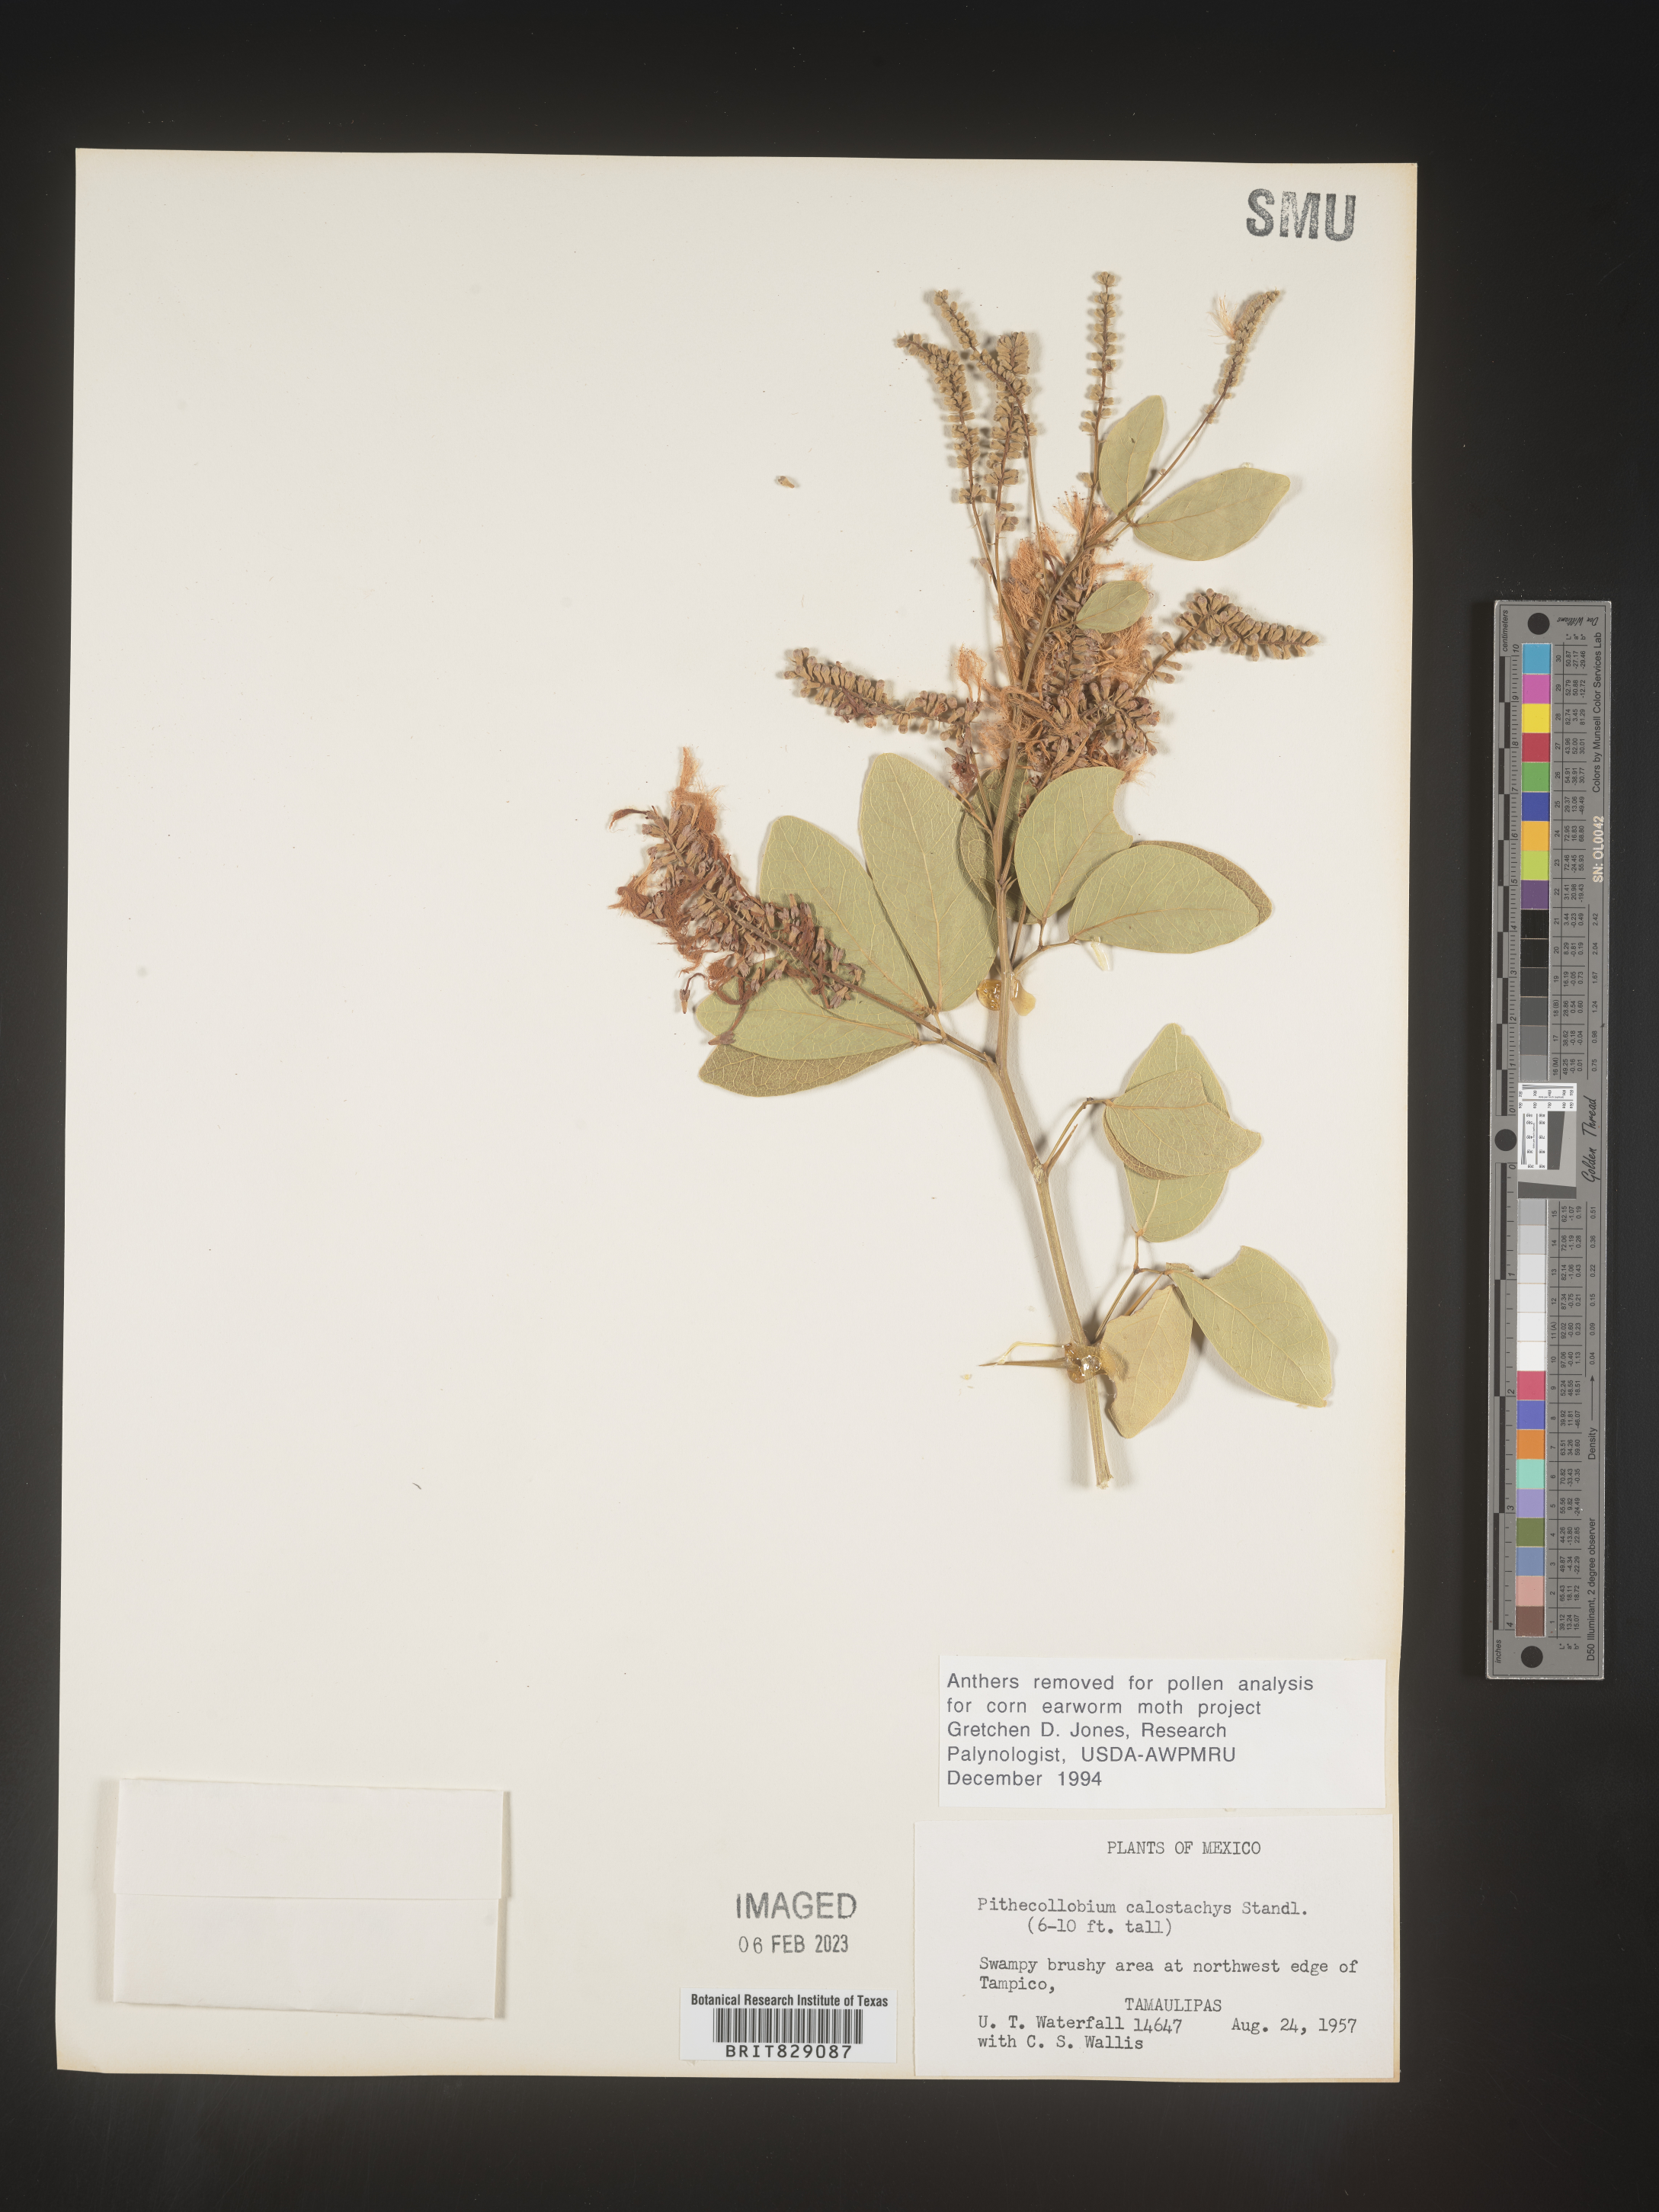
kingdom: Plantae
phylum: Tracheophyta
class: Magnoliopsida
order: Fabales
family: Fabaceae
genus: Pithecellobium
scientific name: Pithecellobium
